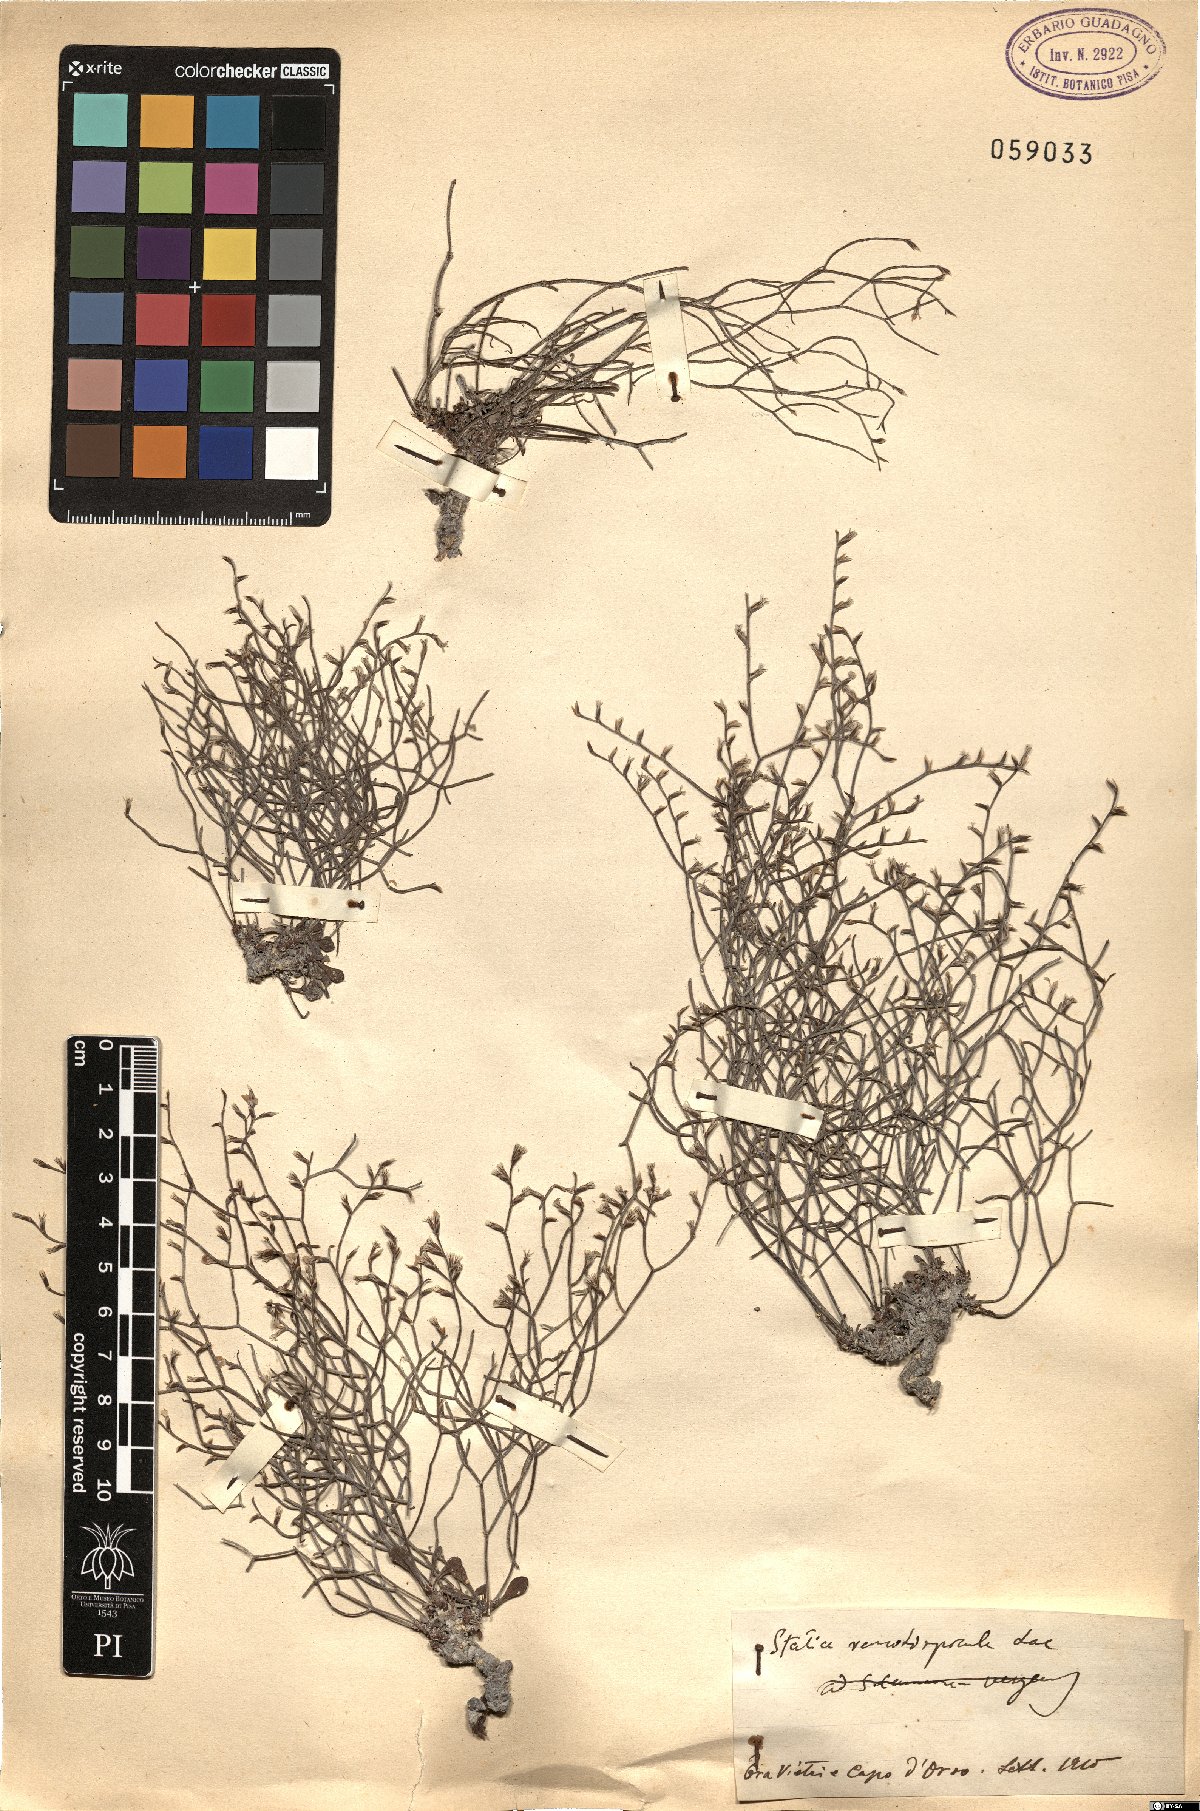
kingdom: Plantae
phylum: Tracheophyta
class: Magnoliopsida
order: Caryophyllales
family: Plumbaginaceae
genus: Limonium
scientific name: Limonium remotispiculum
